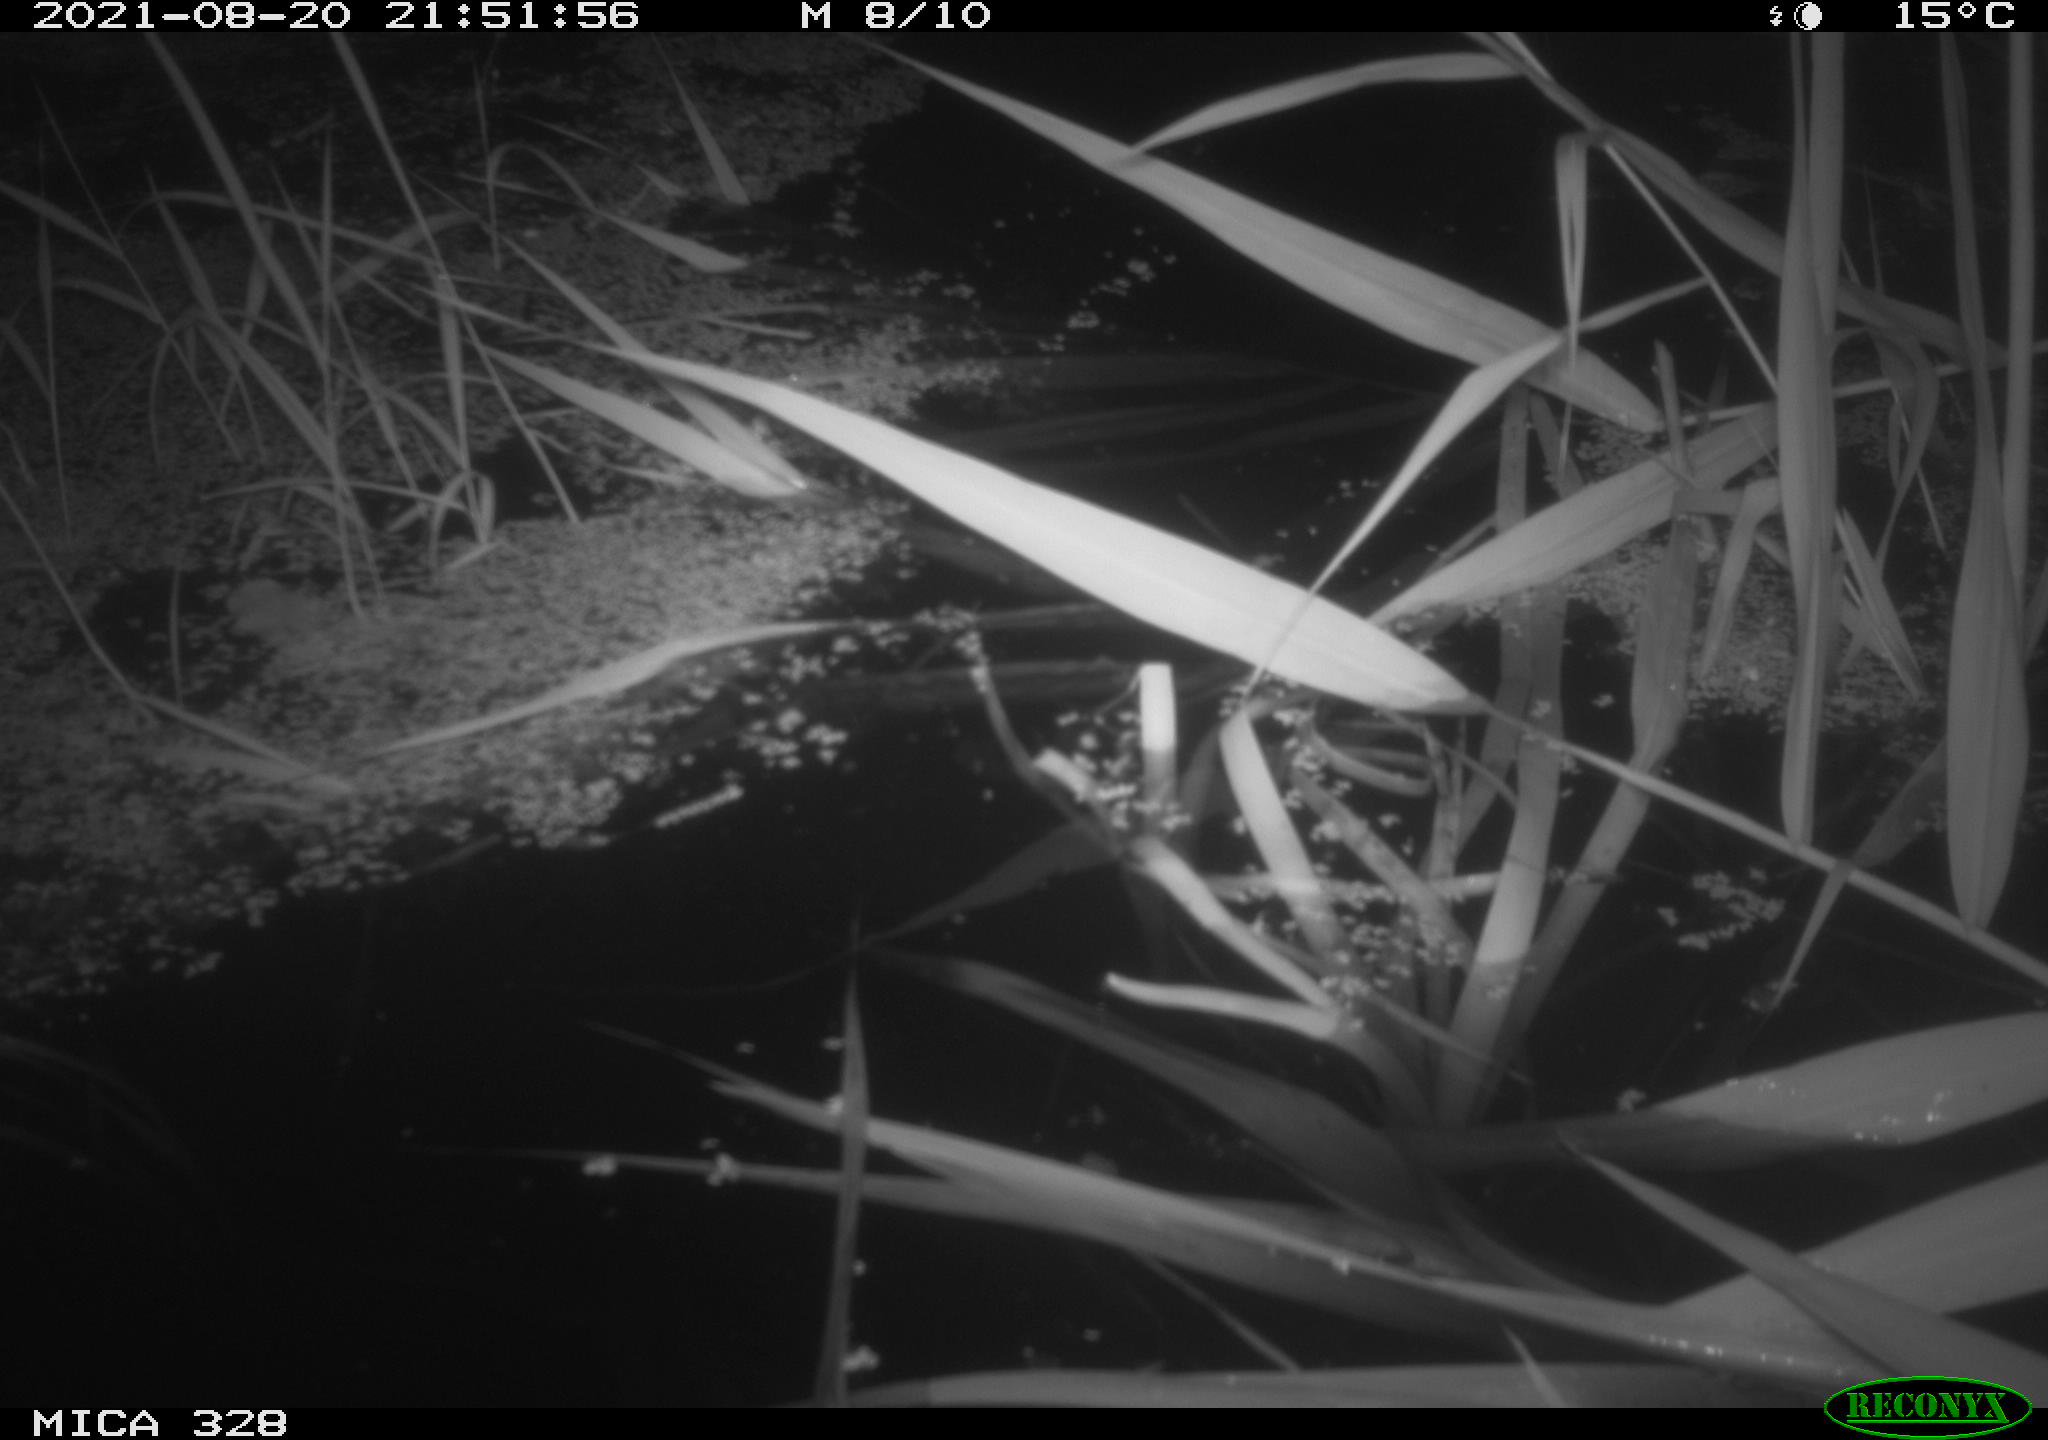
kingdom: Animalia
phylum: Chordata
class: Mammalia
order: Rodentia
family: Cricetidae
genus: Ondatra
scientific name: Ondatra zibethicus
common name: Muskrat
